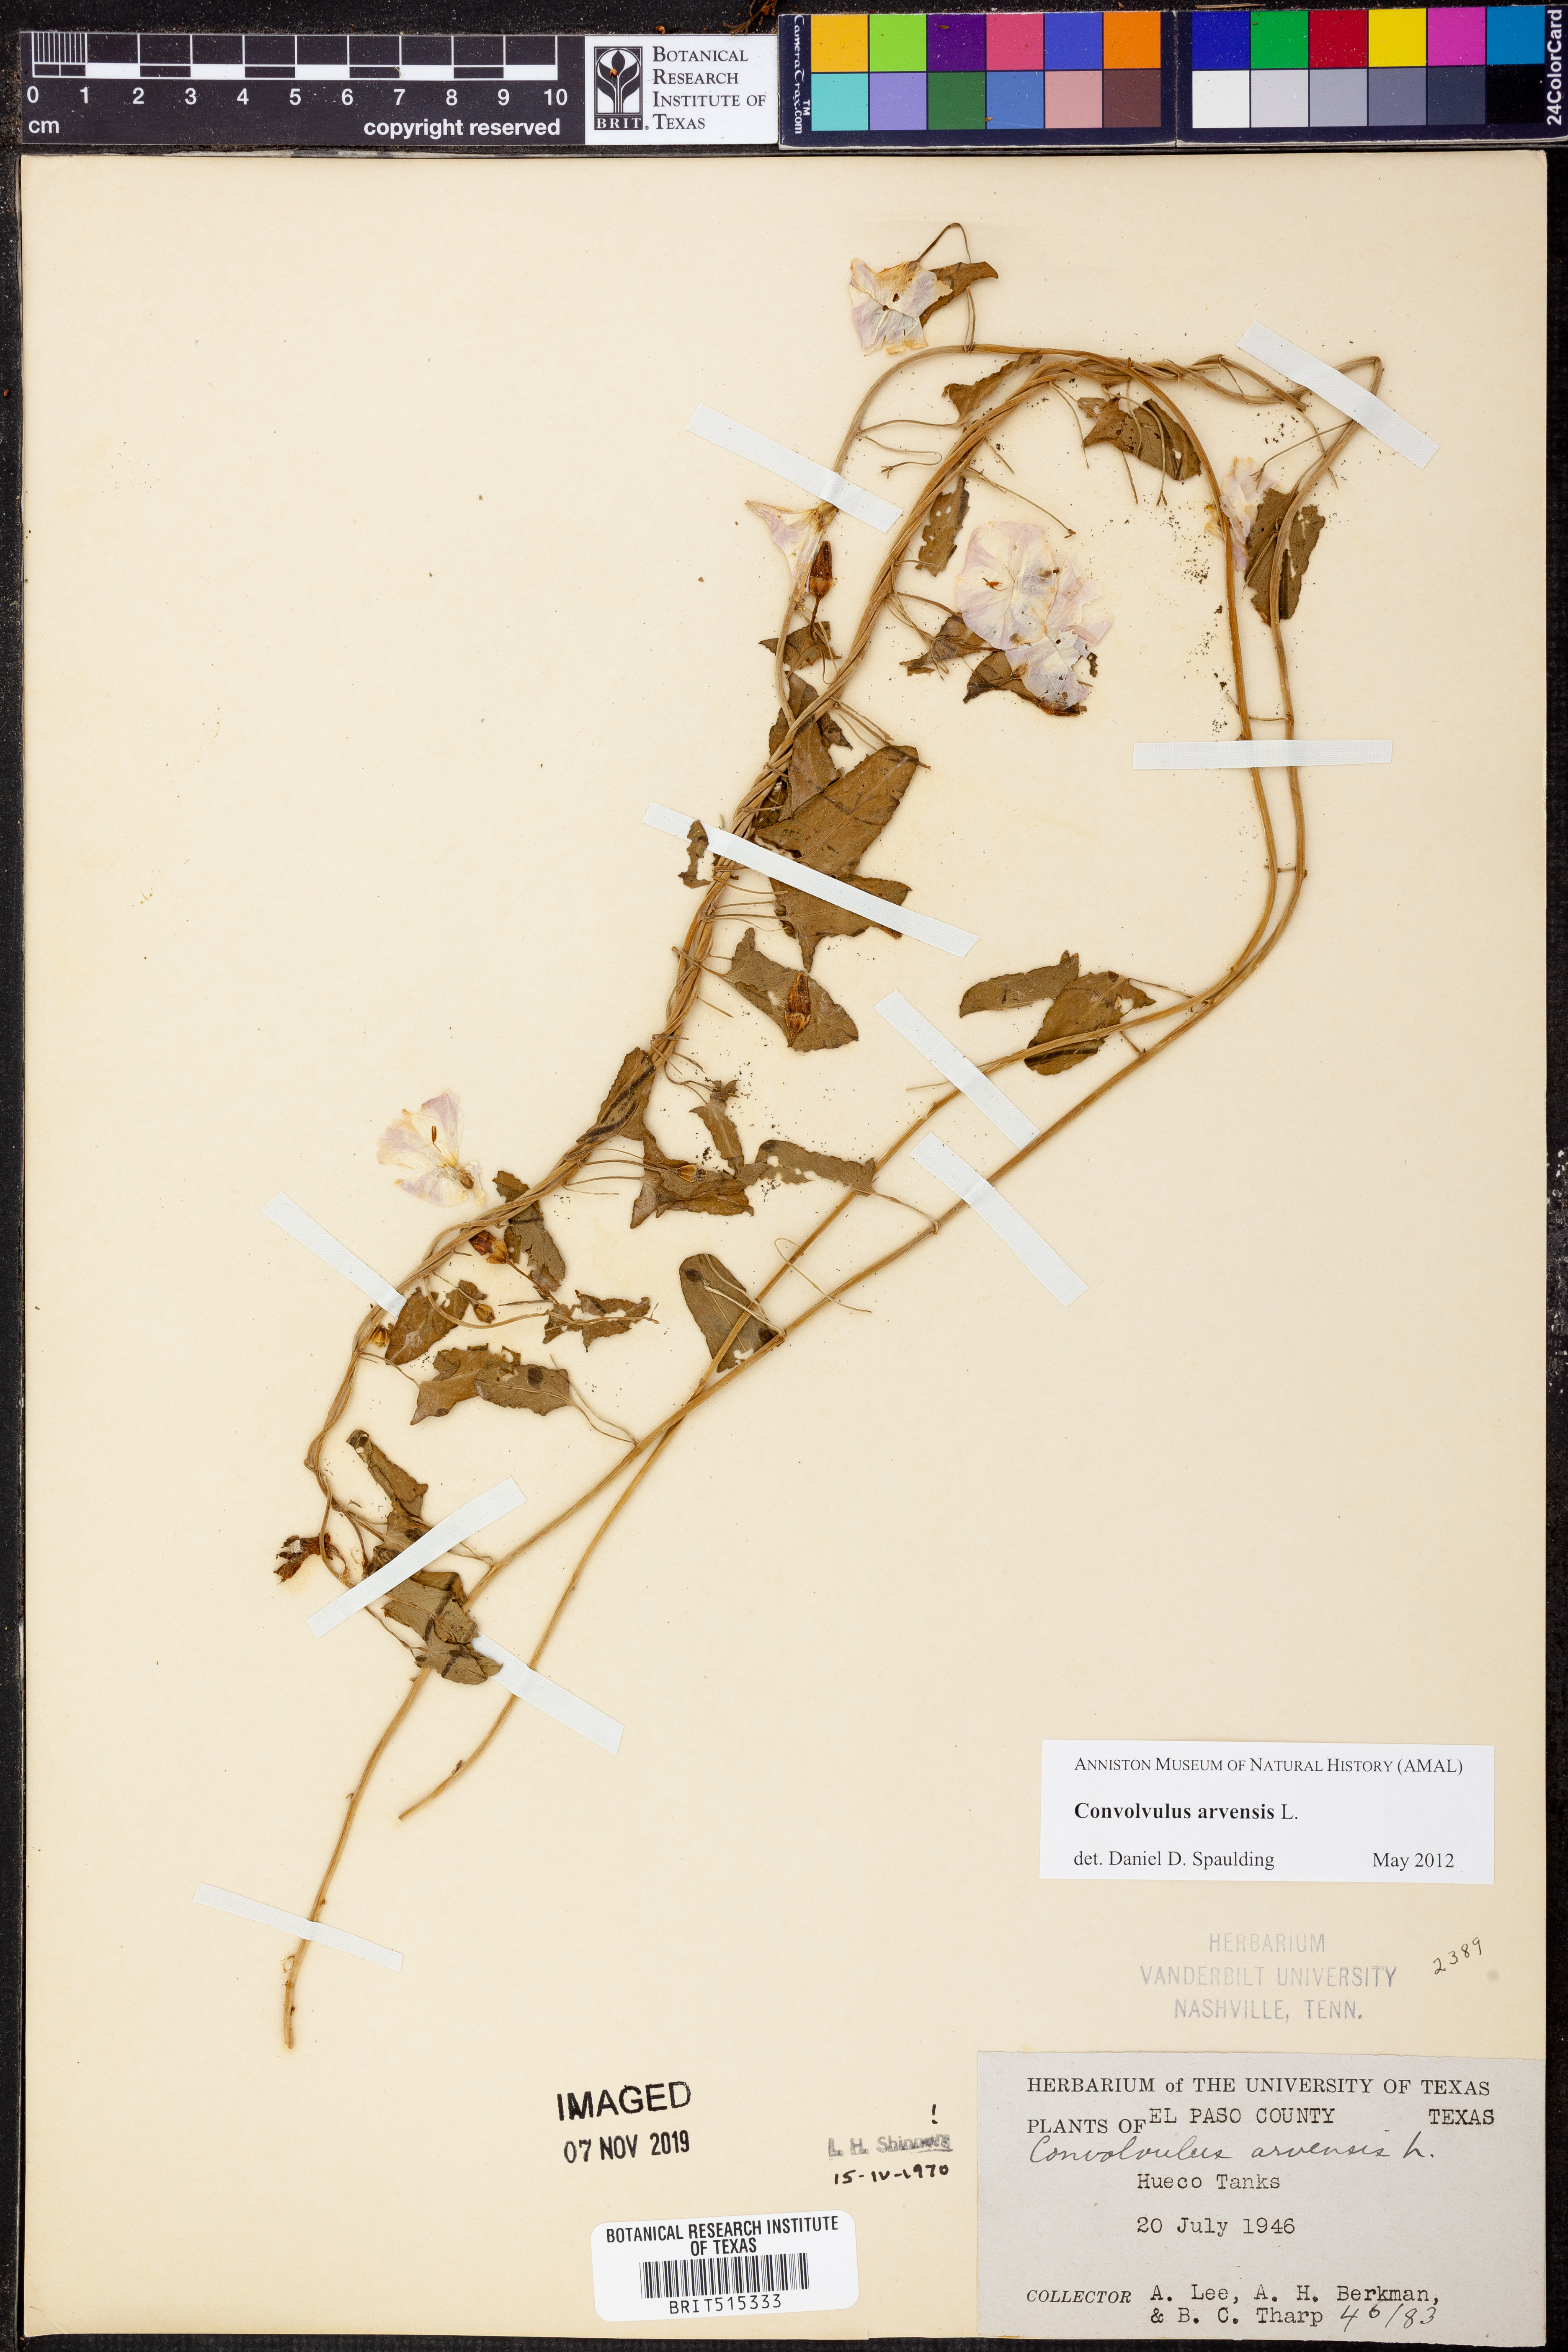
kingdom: Plantae
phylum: Tracheophyta
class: Magnoliopsida
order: Solanales
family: Convolvulaceae
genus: Convolvulus
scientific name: Convolvulus arvensis
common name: Field bindweed
